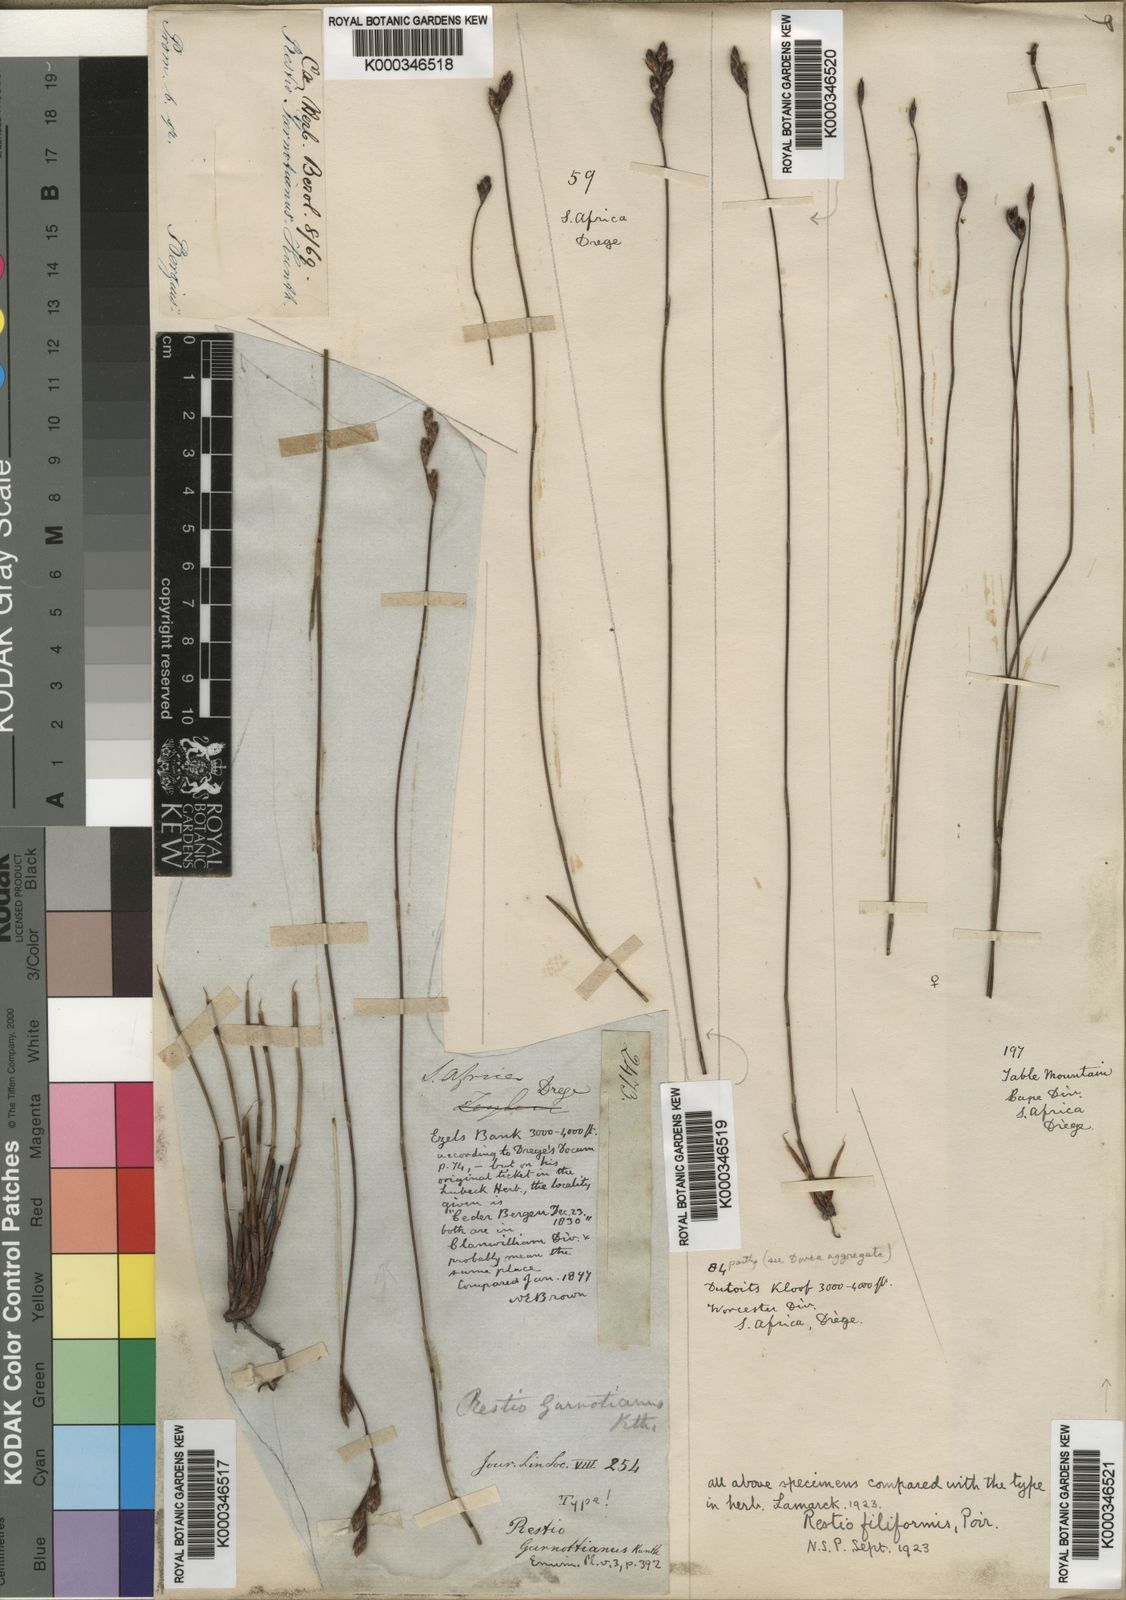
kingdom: Plantae
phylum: Tracheophyta
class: Liliopsida
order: Poales
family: Restionaceae
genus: Restio
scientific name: Restio filiformis
